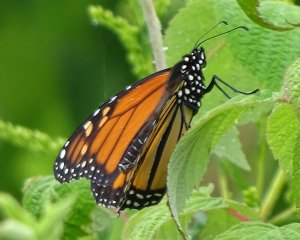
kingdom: Animalia
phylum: Arthropoda
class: Insecta
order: Lepidoptera
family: Nymphalidae
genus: Danaus
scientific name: Danaus plexippus
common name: Monarch
